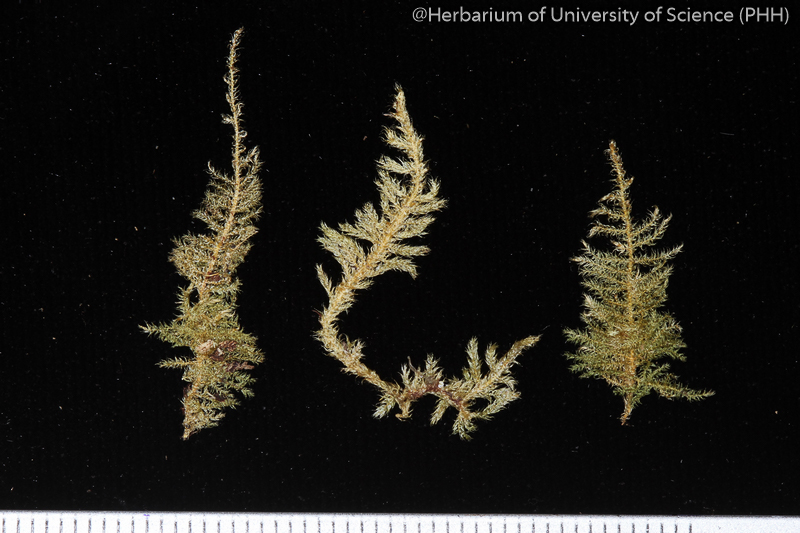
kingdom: Plantae
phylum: Bryophyta
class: Bryopsida
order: Hypnales
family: Hypnaceae
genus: Vesicularia
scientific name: Vesicularia demangei
